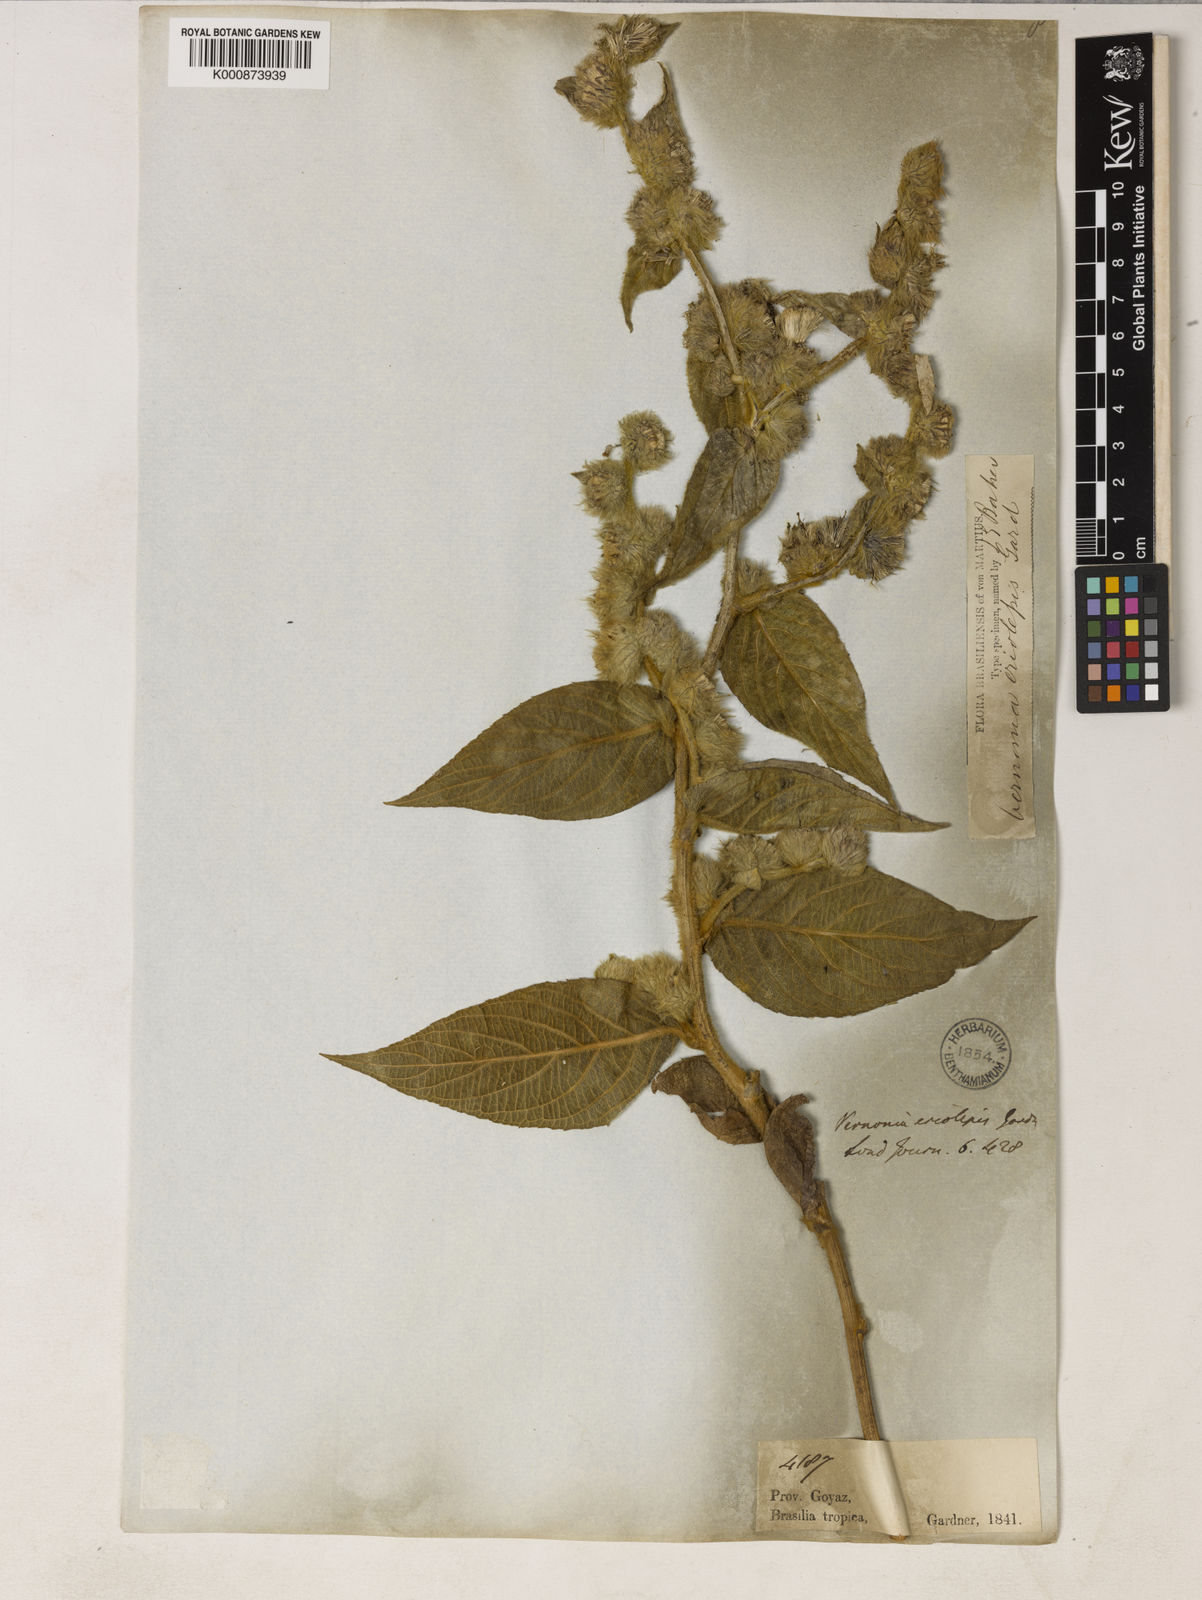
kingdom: Plantae
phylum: Tracheophyta
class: Magnoliopsida
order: Asterales
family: Asteraceae
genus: Lepidaploa
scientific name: Lepidaploa eriolepis
